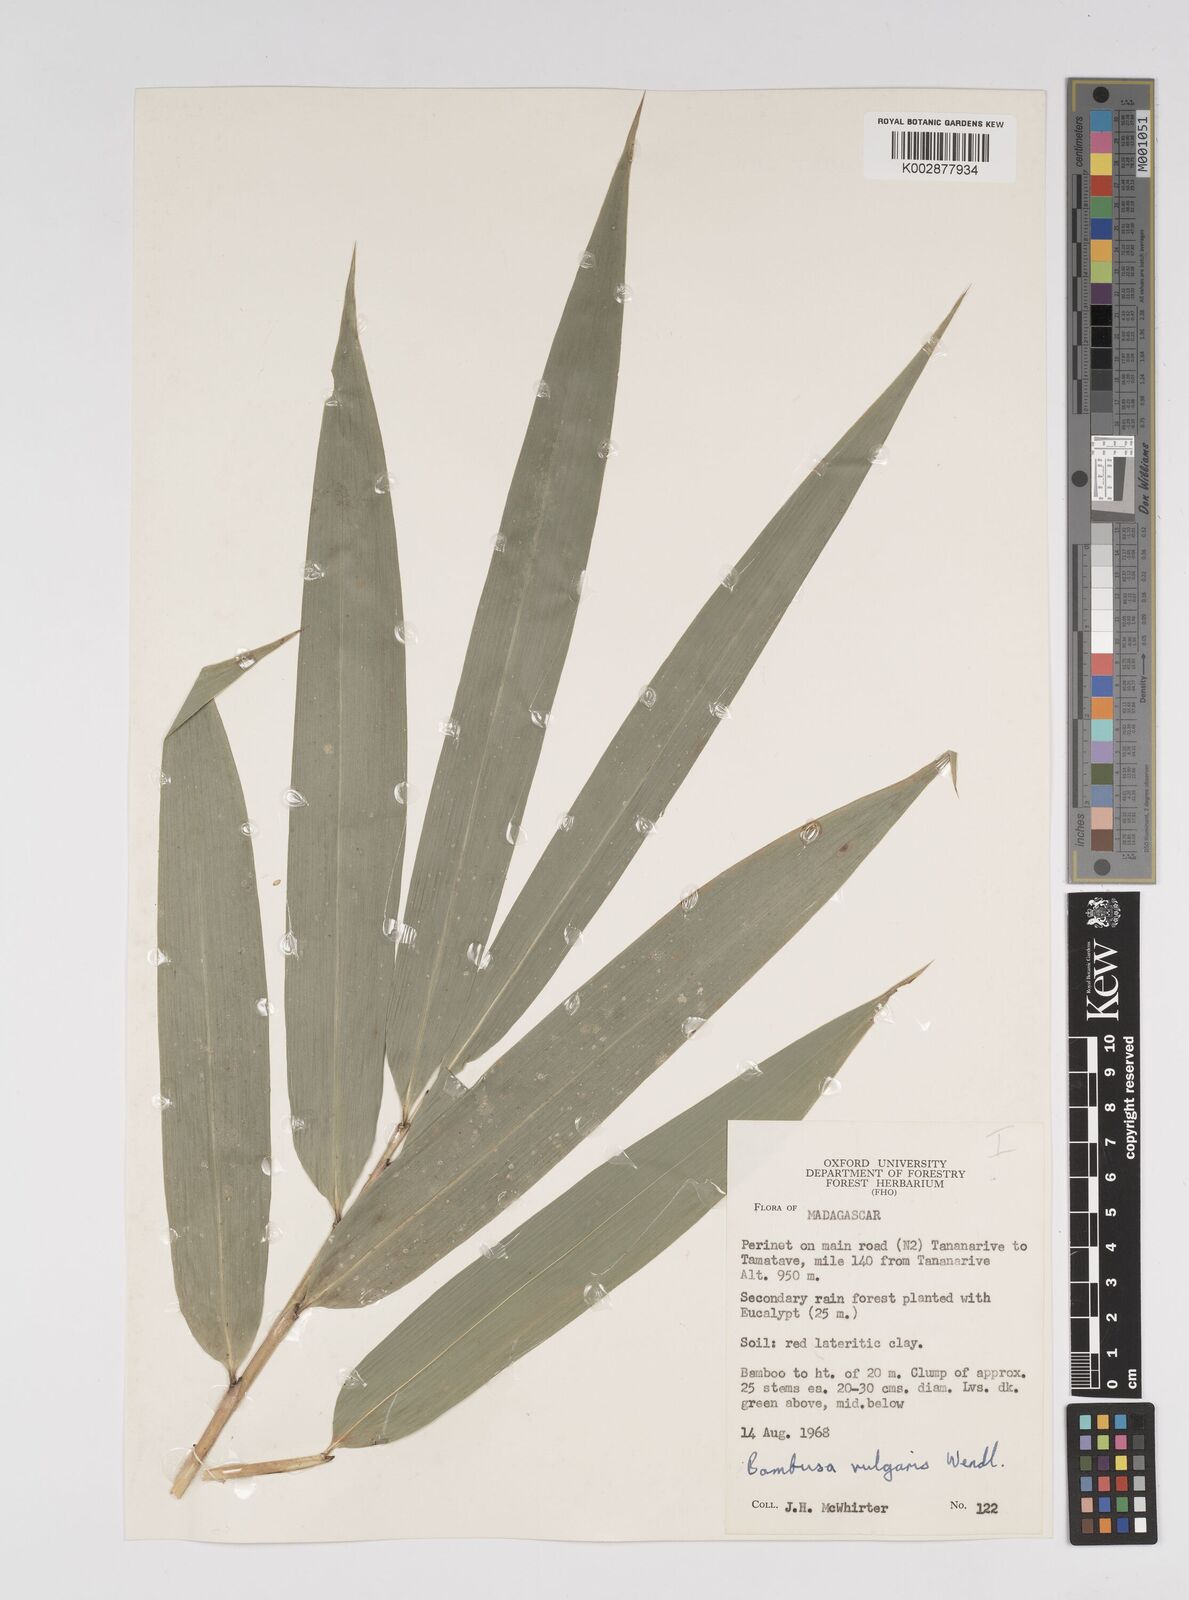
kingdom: Plantae
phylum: Tracheophyta
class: Liliopsida
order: Poales
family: Poaceae
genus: Bambusa
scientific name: Bambusa vulgaris
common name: Common bamboo
